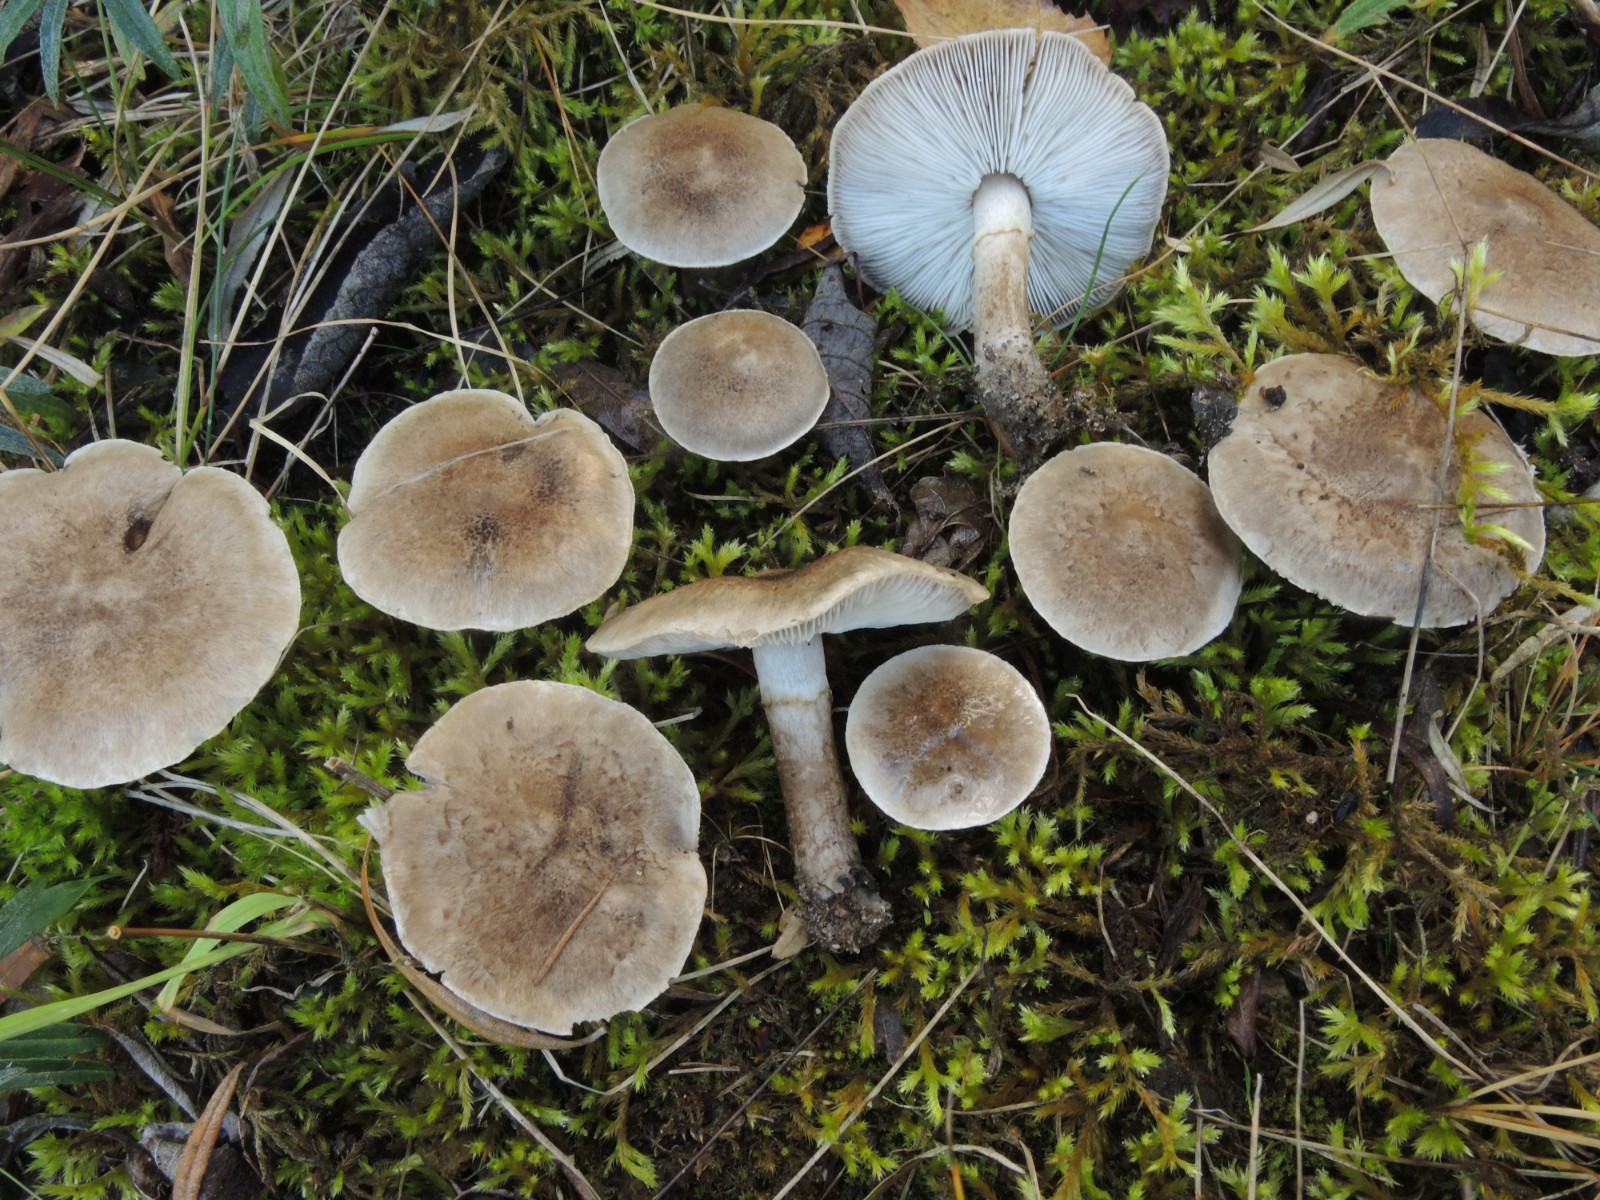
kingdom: Fungi
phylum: Basidiomycota
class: Agaricomycetes
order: Agaricales
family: Tricholomataceae
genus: Tricholoma
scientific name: Tricholoma cingulatum
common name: ring-ridderhat
